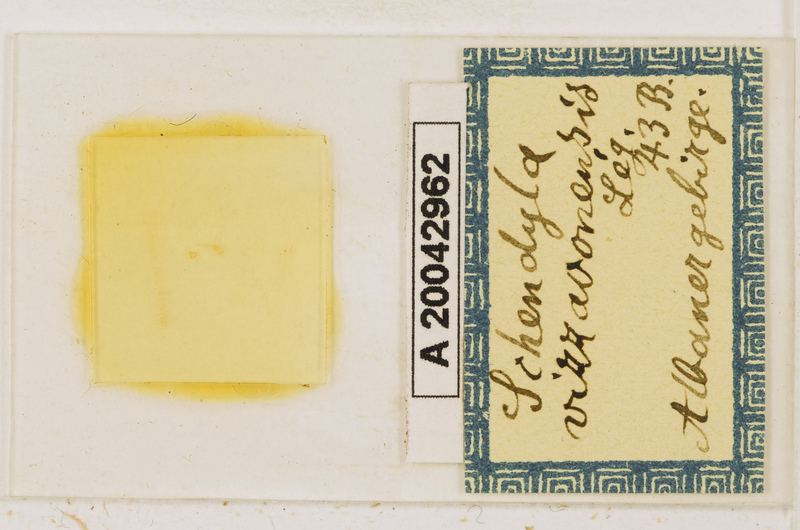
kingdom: Animalia
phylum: Arthropoda
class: Chilopoda
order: Geophilomorpha
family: Schendylidae
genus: Schendyla
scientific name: Schendyla vizzavonae
